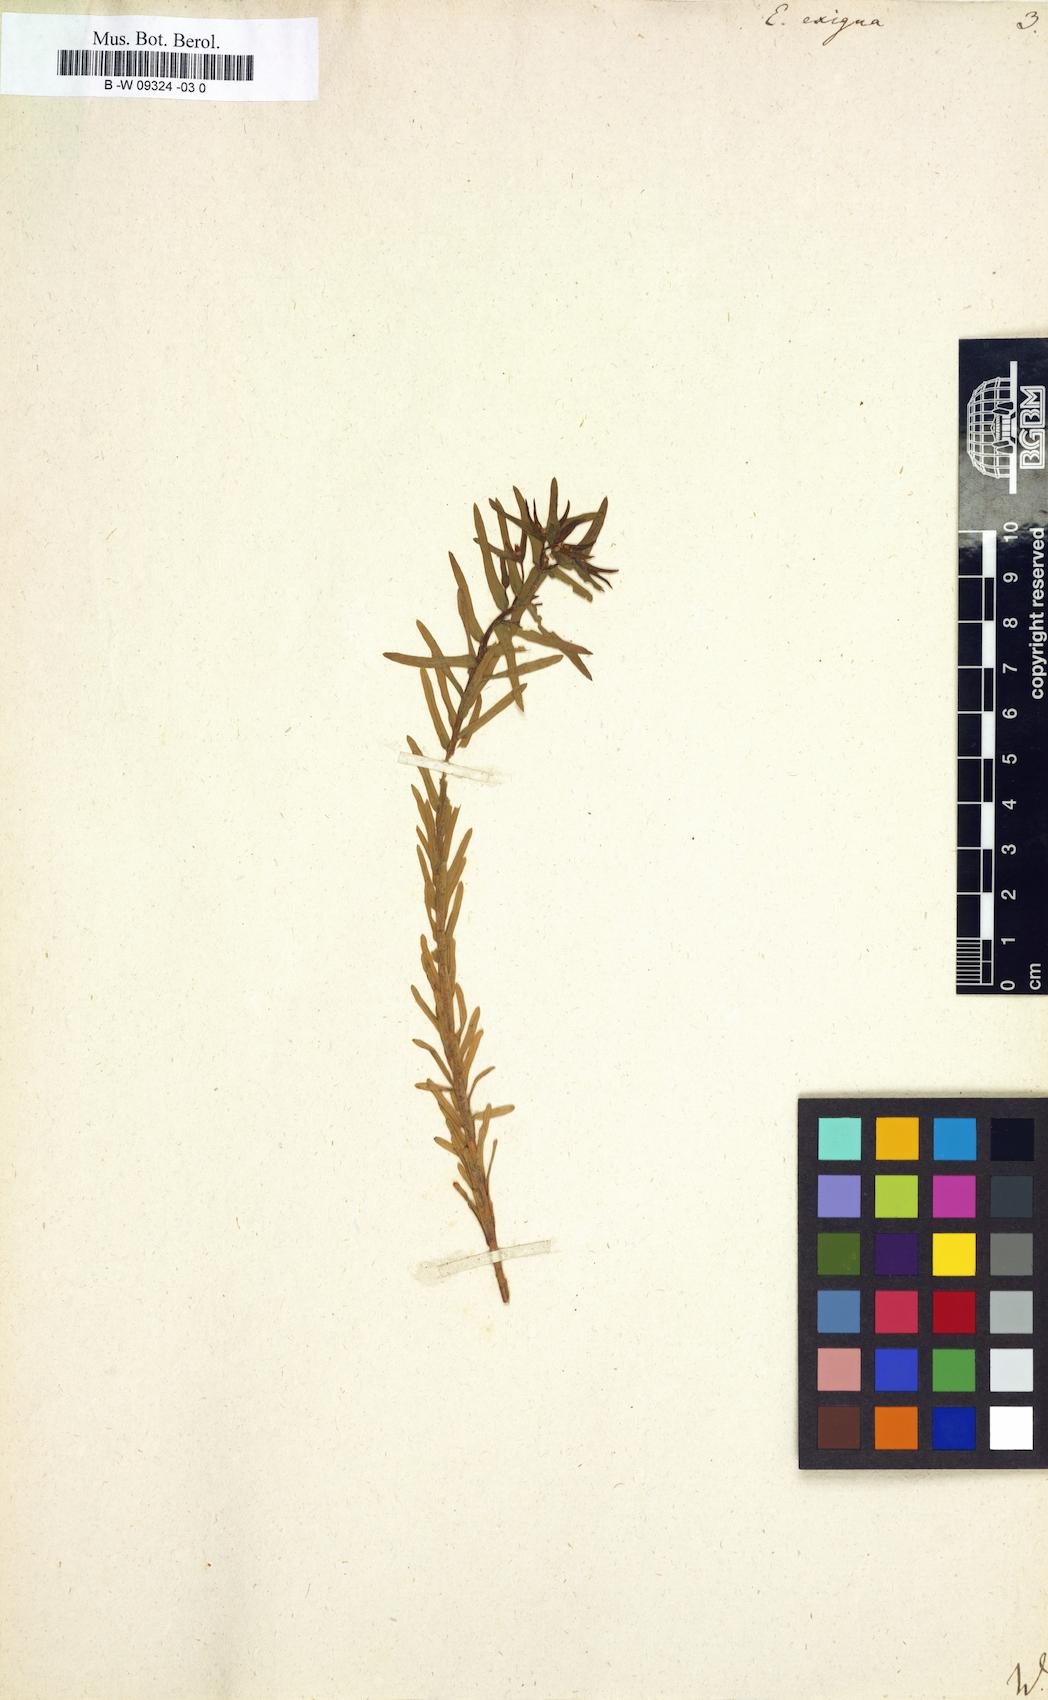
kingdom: Plantae
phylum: Tracheophyta
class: Magnoliopsida
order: Malpighiales
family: Euphorbiaceae
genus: Euphorbia
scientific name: Euphorbia exigua
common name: Dwarf spurge
